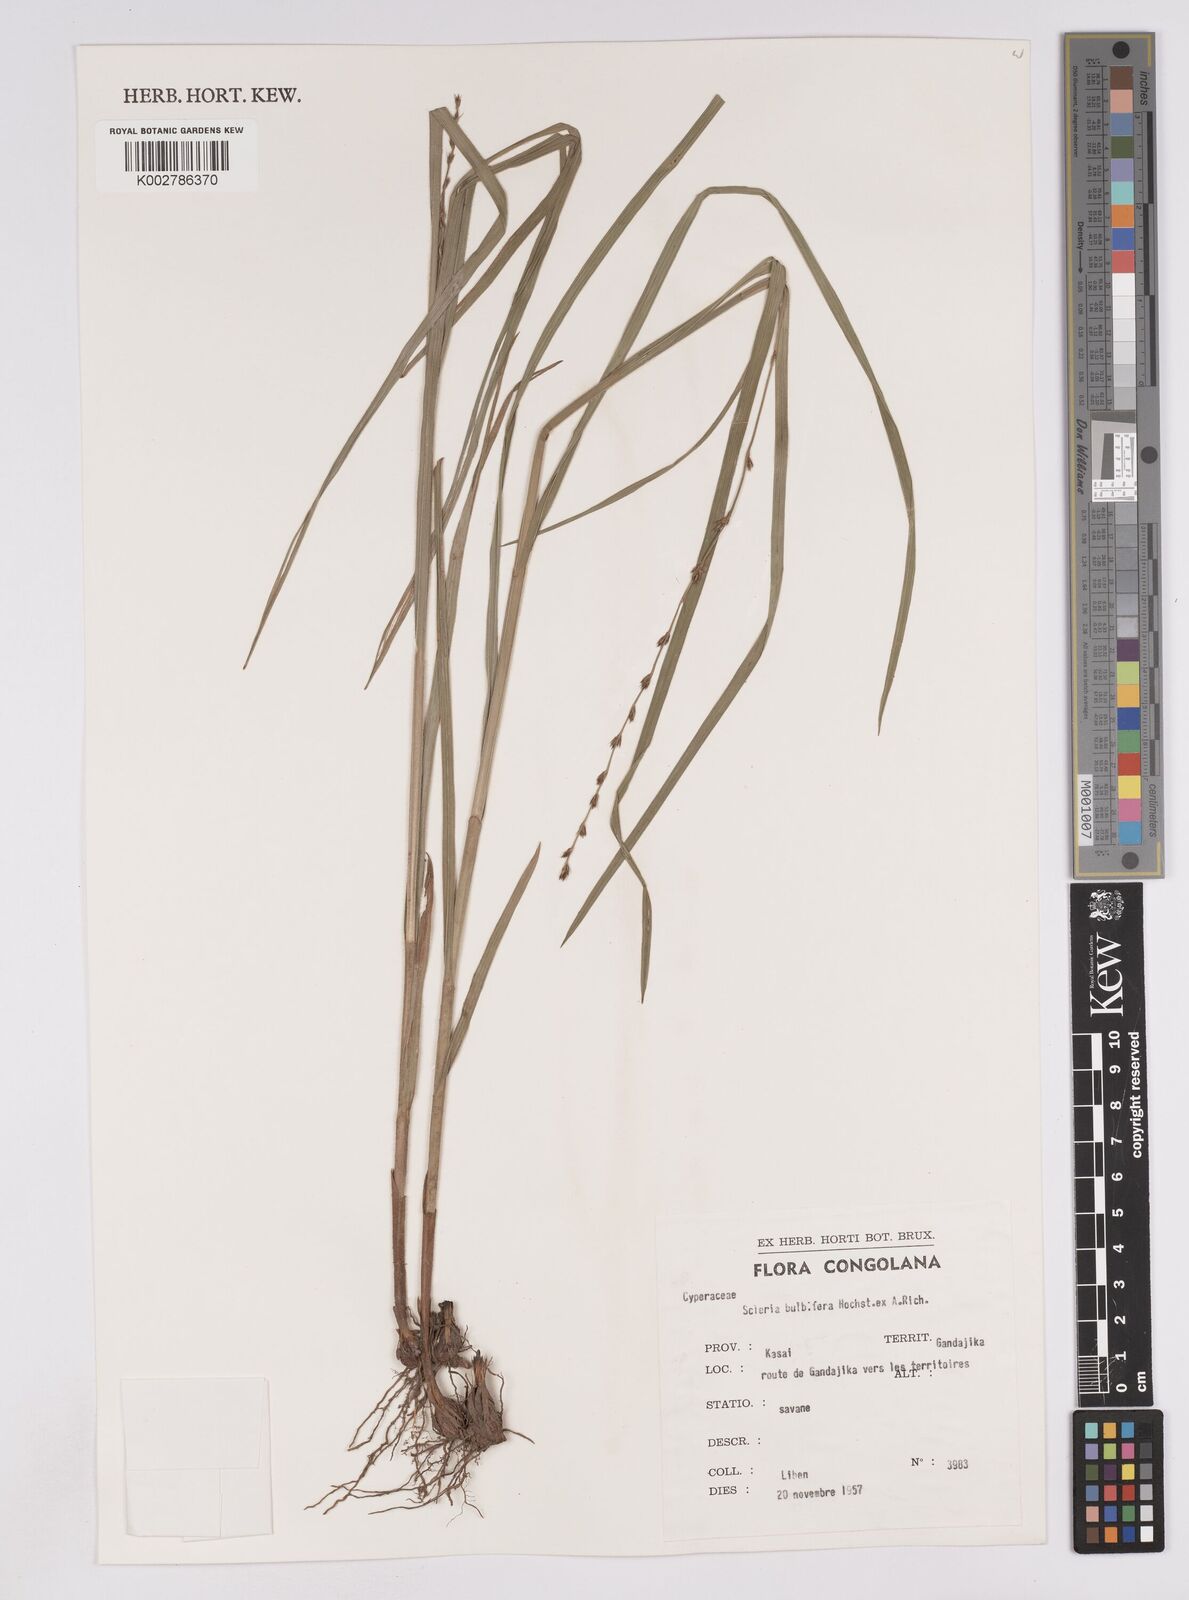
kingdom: Plantae
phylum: Tracheophyta
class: Liliopsida
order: Poales
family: Cyperaceae
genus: Scleria
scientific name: Scleria bulbifera
